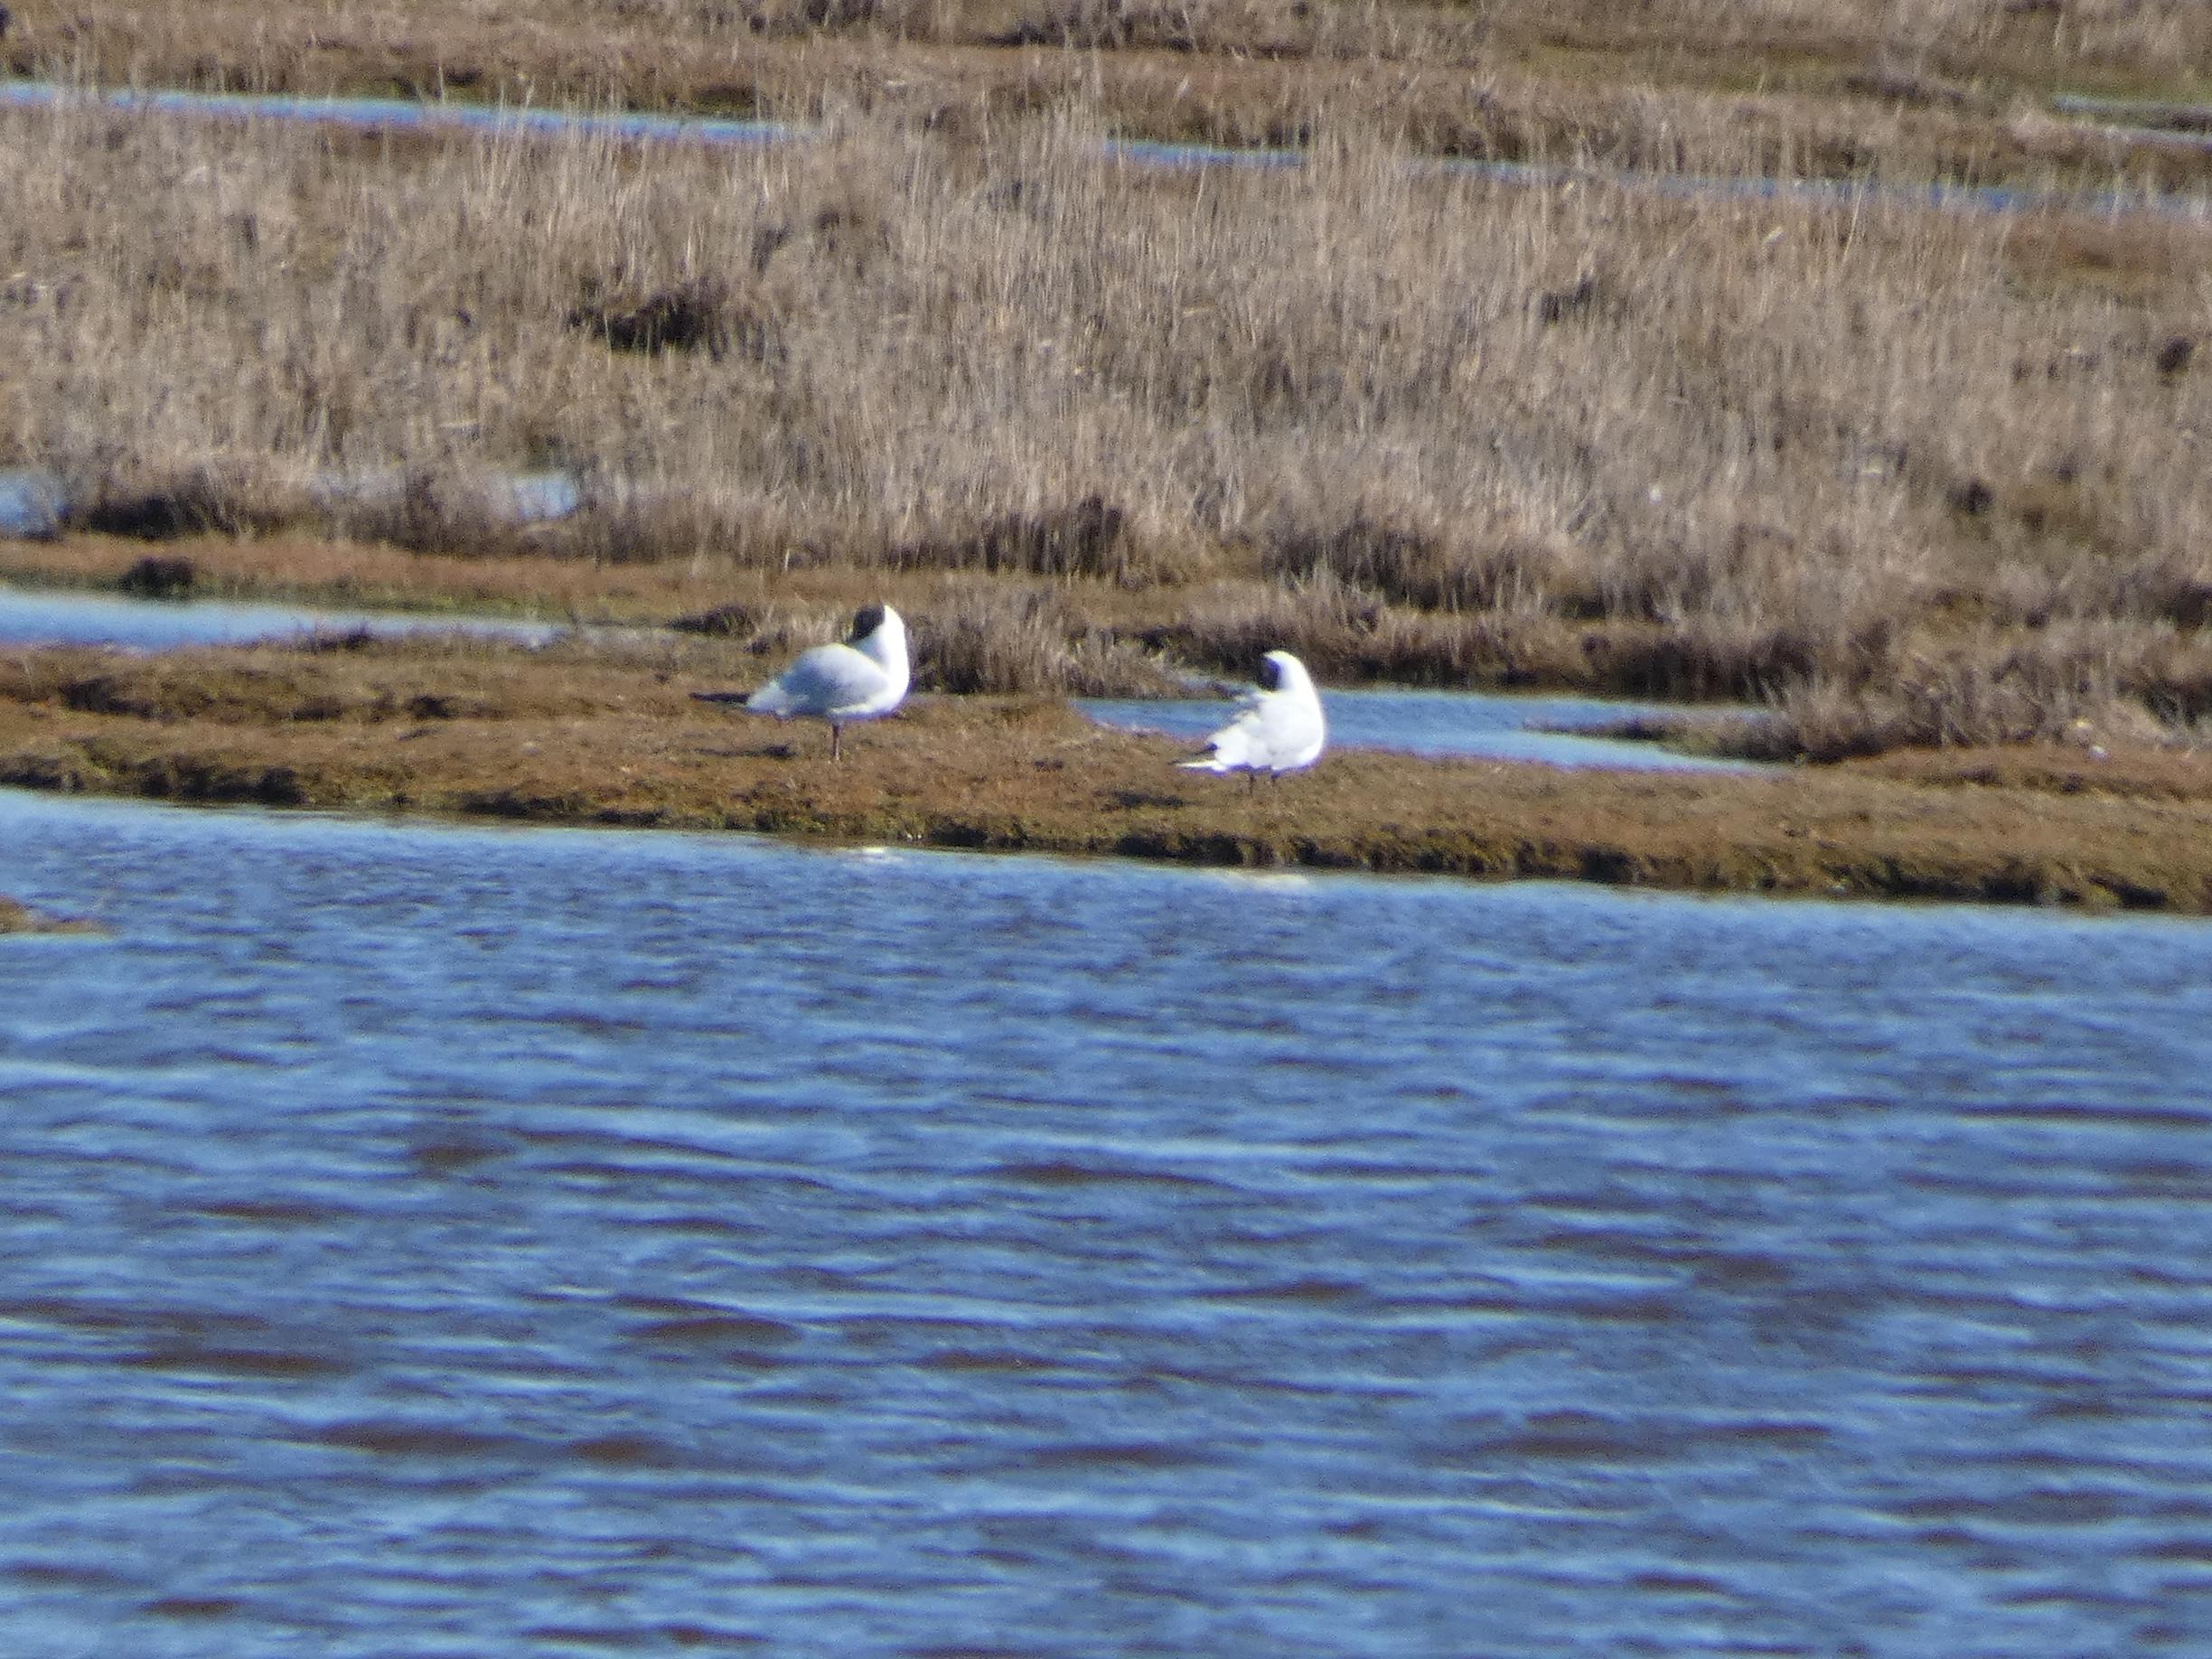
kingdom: Animalia
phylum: Chordata
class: Aves
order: Charadriiformes
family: Laridae
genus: Chroicocephalus
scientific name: Chroicocephalus ridibundus
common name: Hættemåge
